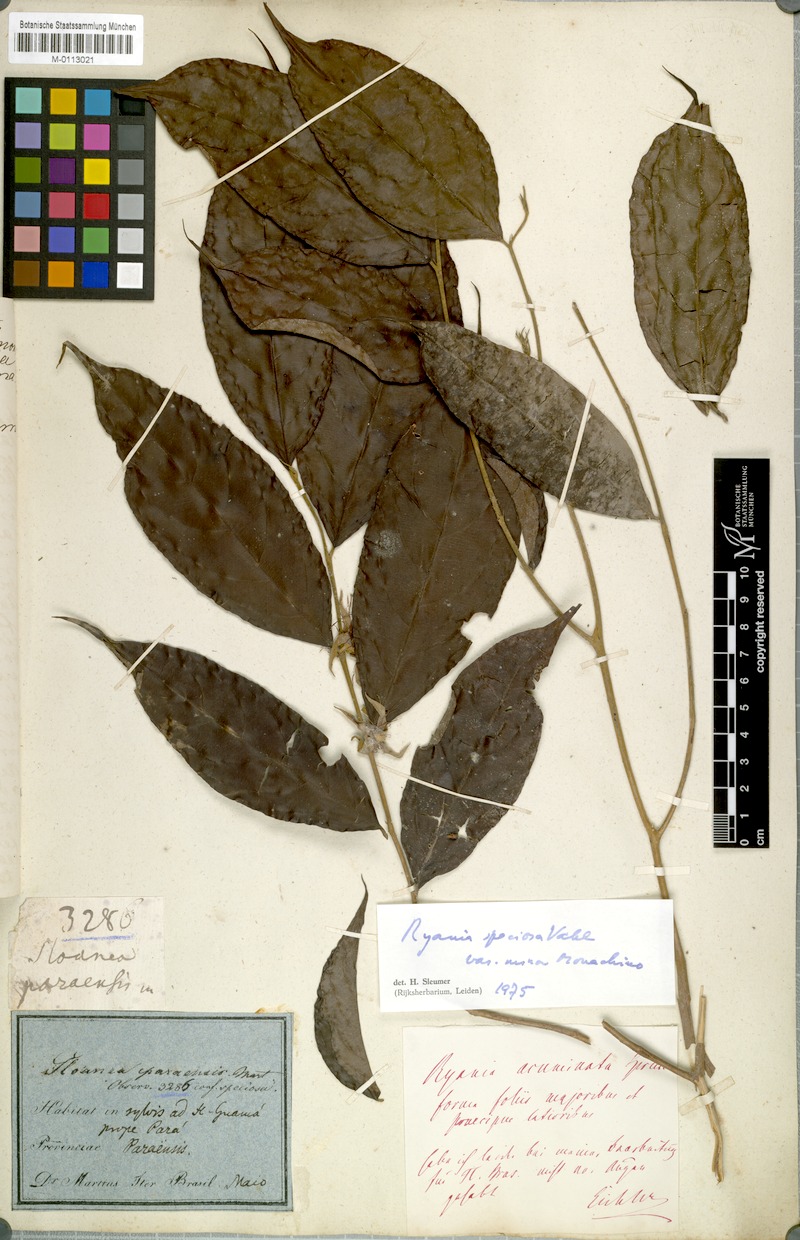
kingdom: Plantae
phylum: Tracheophyta
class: Magnoliopsida
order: Malpighiales
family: Salicaceae
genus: Ryania
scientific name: Ryania speciosa
